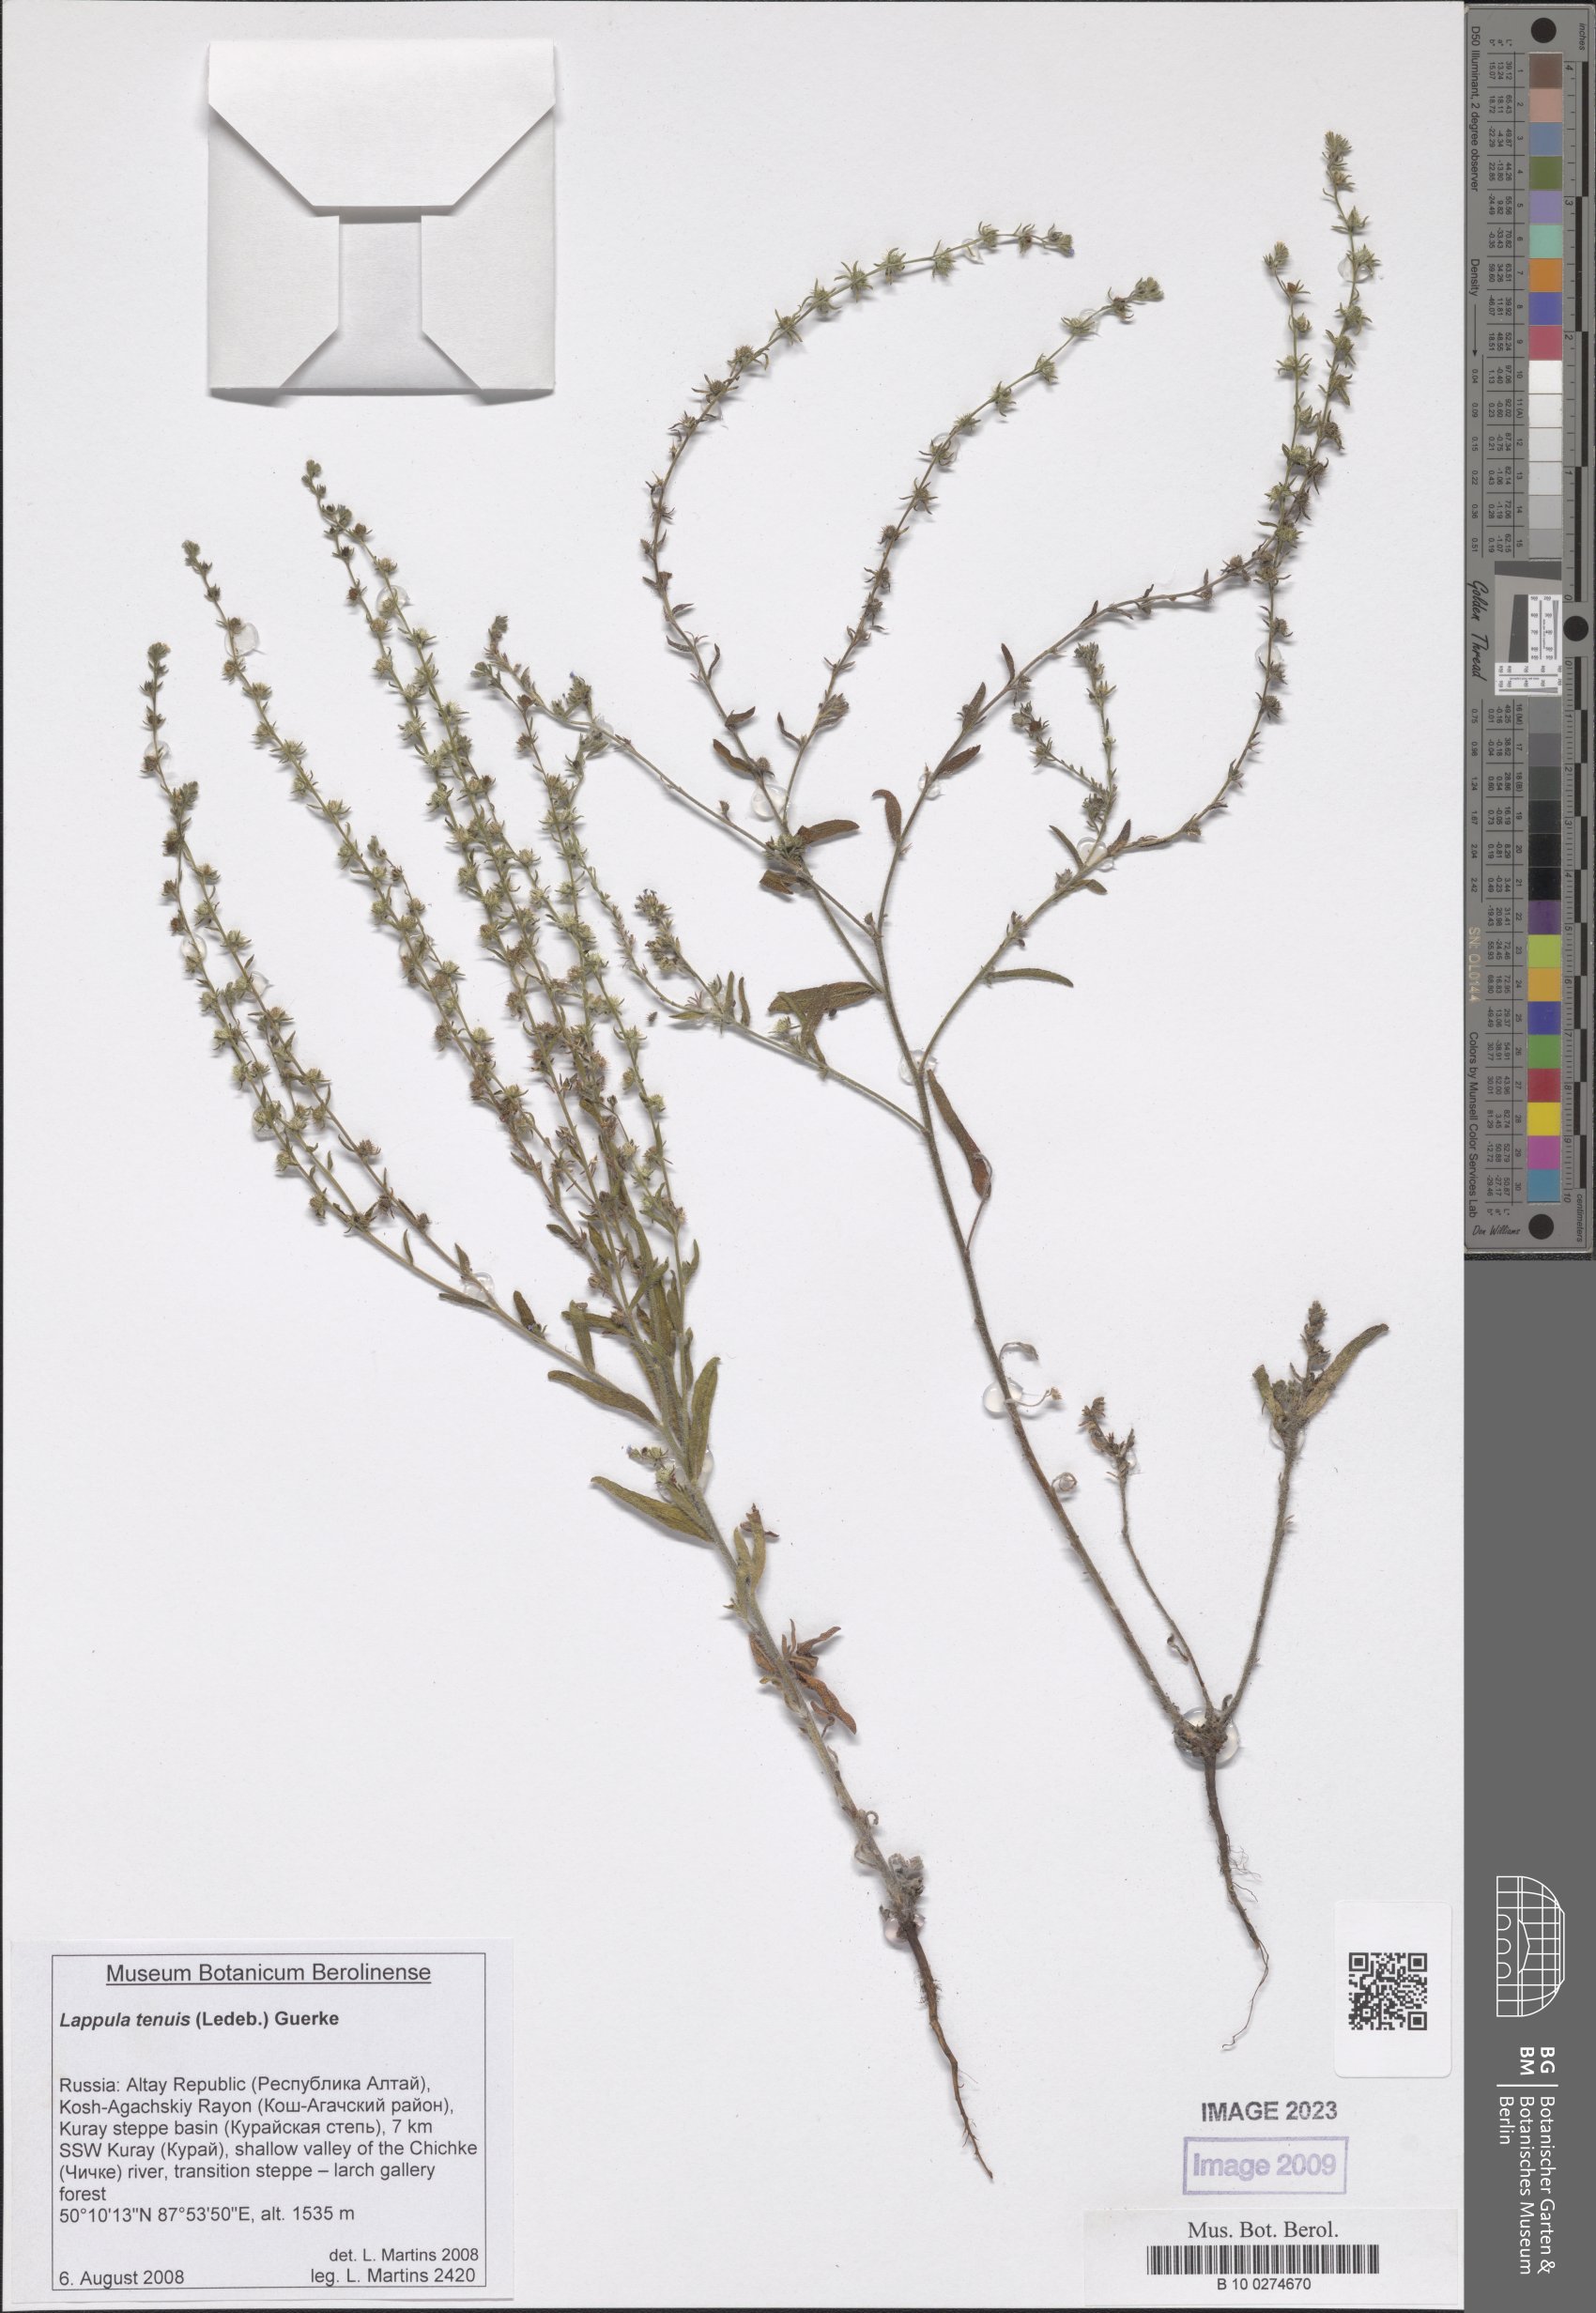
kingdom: Plantae
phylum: Tracheophyta
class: Magnoliopsida
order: Boraginales
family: Boraginaceae
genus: Lappula
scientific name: Lappula tenuis
